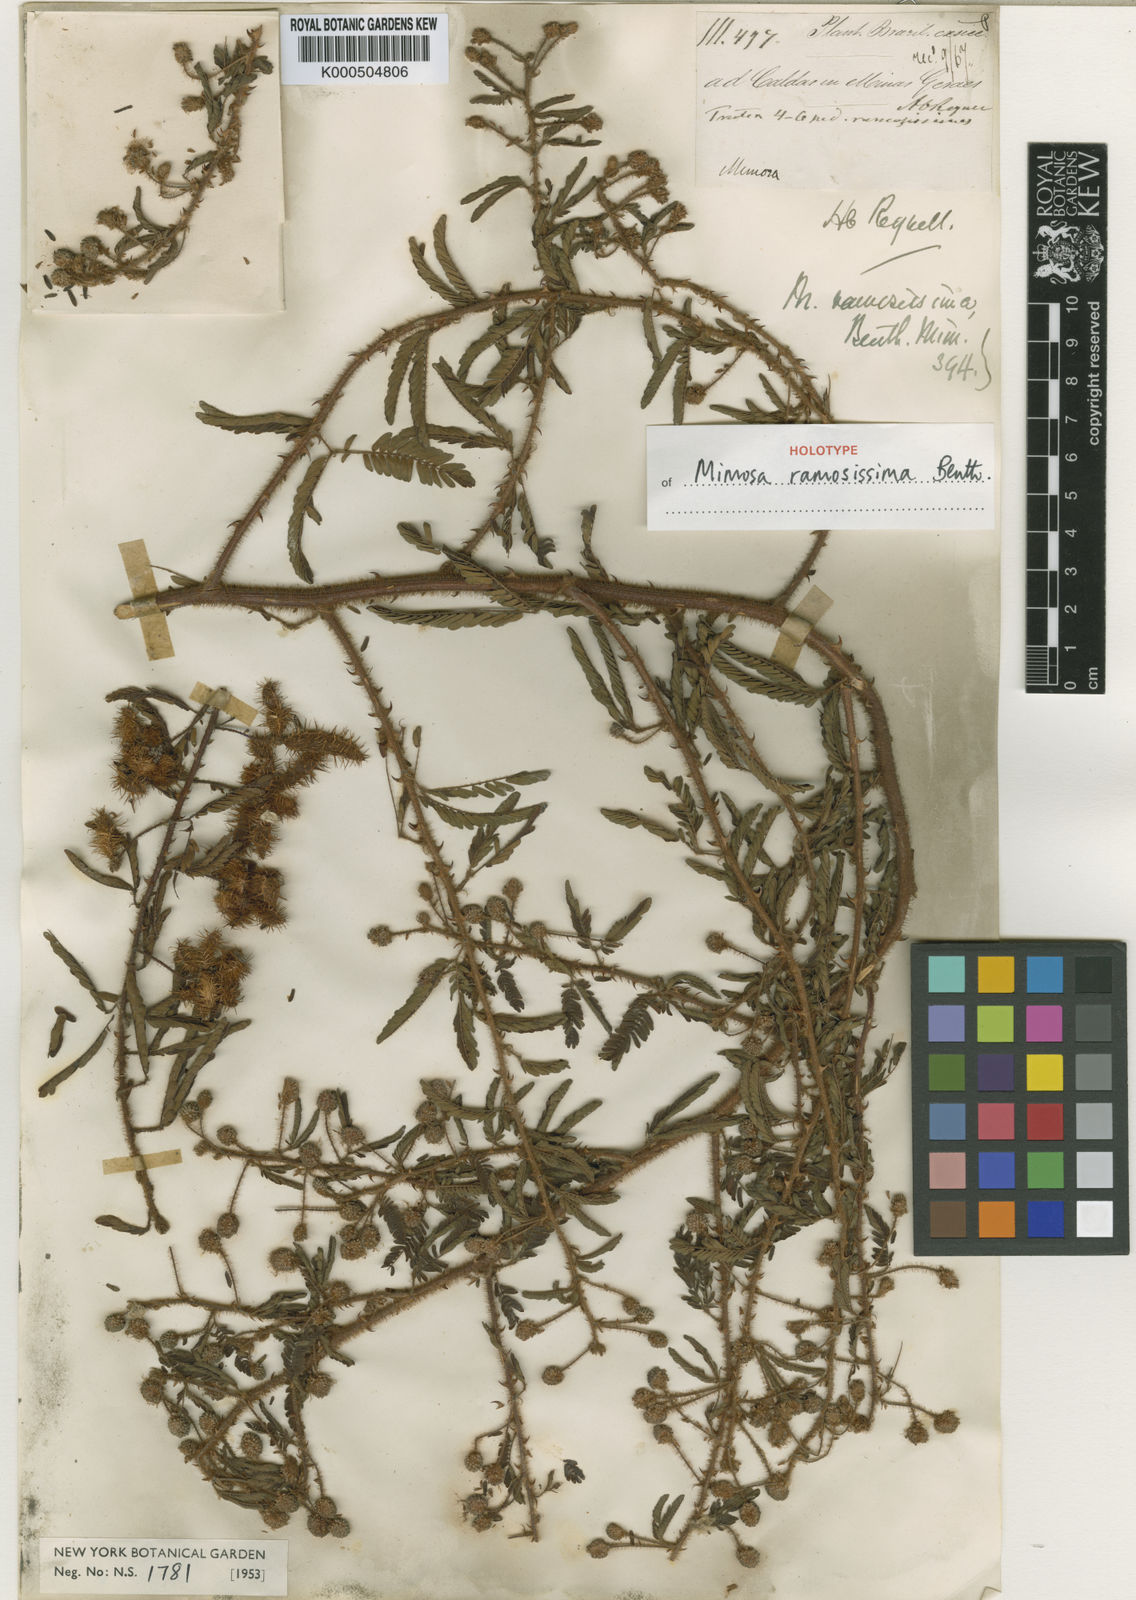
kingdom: Plantae
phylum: Tracheophyta
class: Magnoliopsida
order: Fabales
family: Fabaceae
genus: Mimosa
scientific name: Mimosa ramosissima
